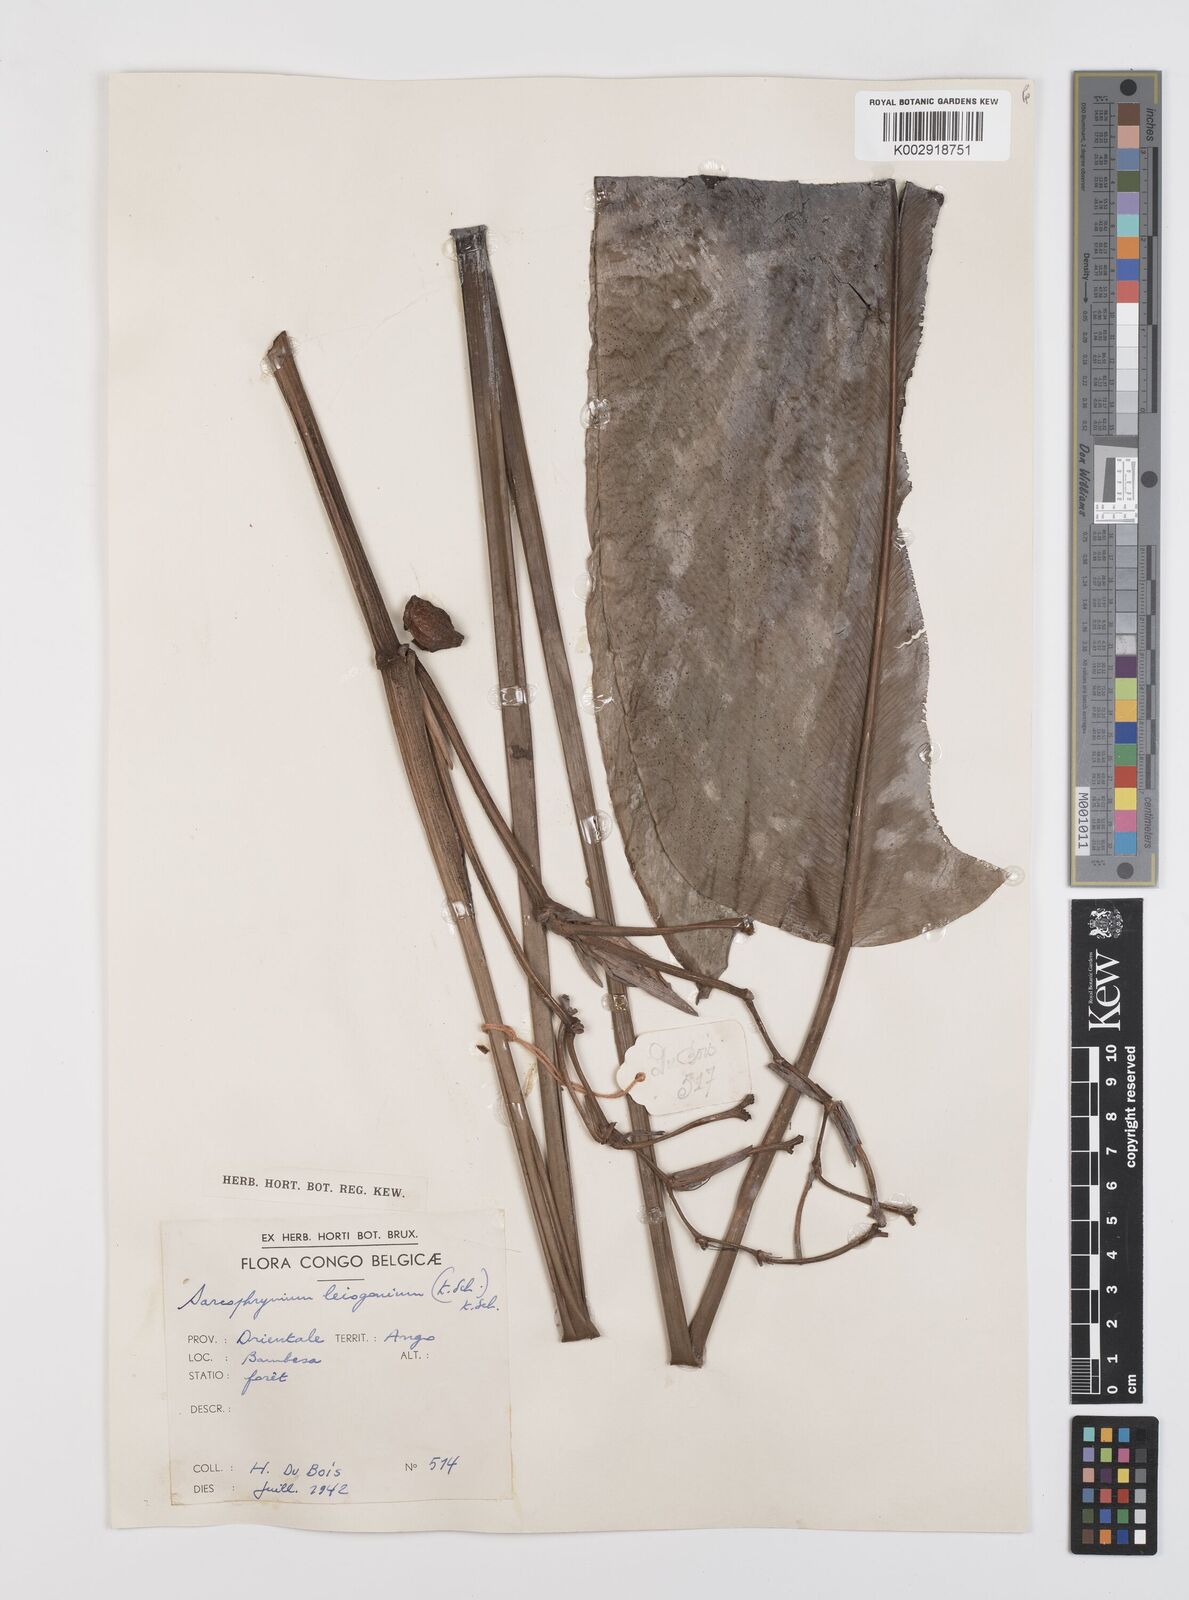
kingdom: Plantae
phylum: Tracheophyta
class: Liliopsida
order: Zingiberales
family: Marantaceae
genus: Sarcophrynium
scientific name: Sarcophrynium prionogonium
